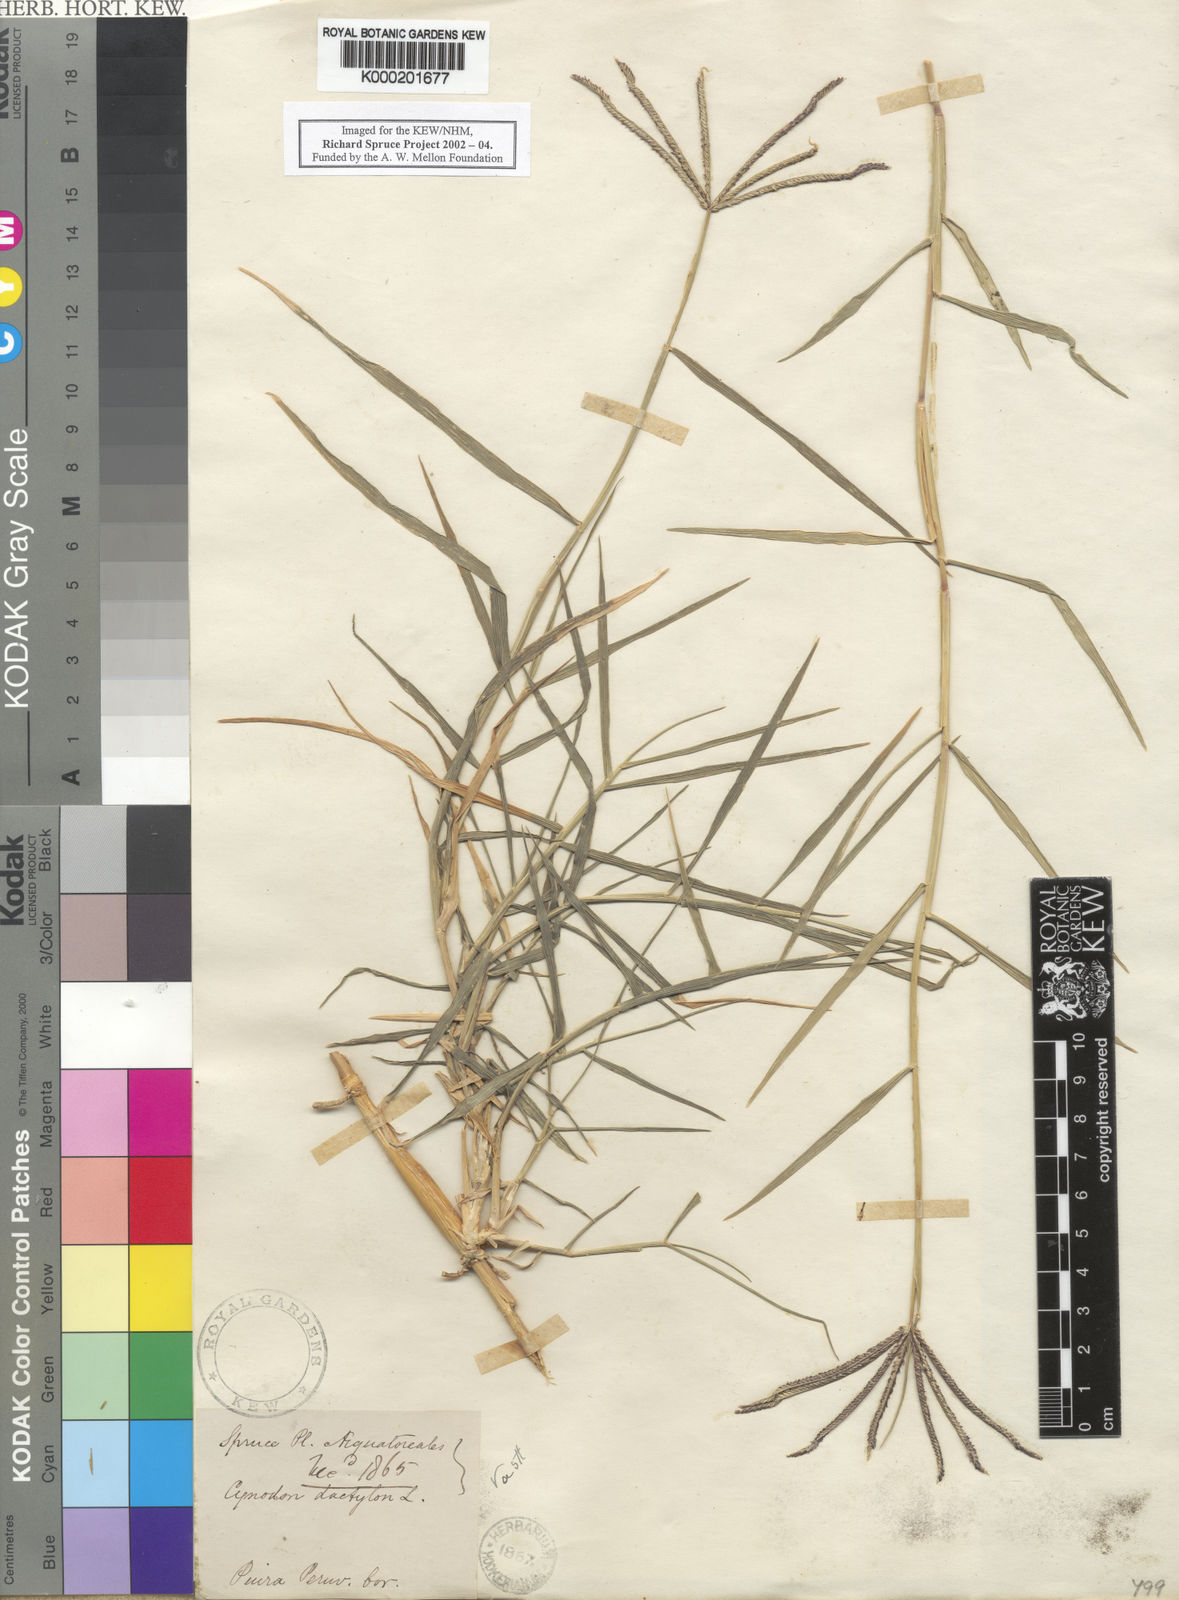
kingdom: Plantae
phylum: Tracheophyta
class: Liliopsida
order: Poales
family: Poaceae
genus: Cynodon
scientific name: Cynodon dactylon
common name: Bermuda grass
